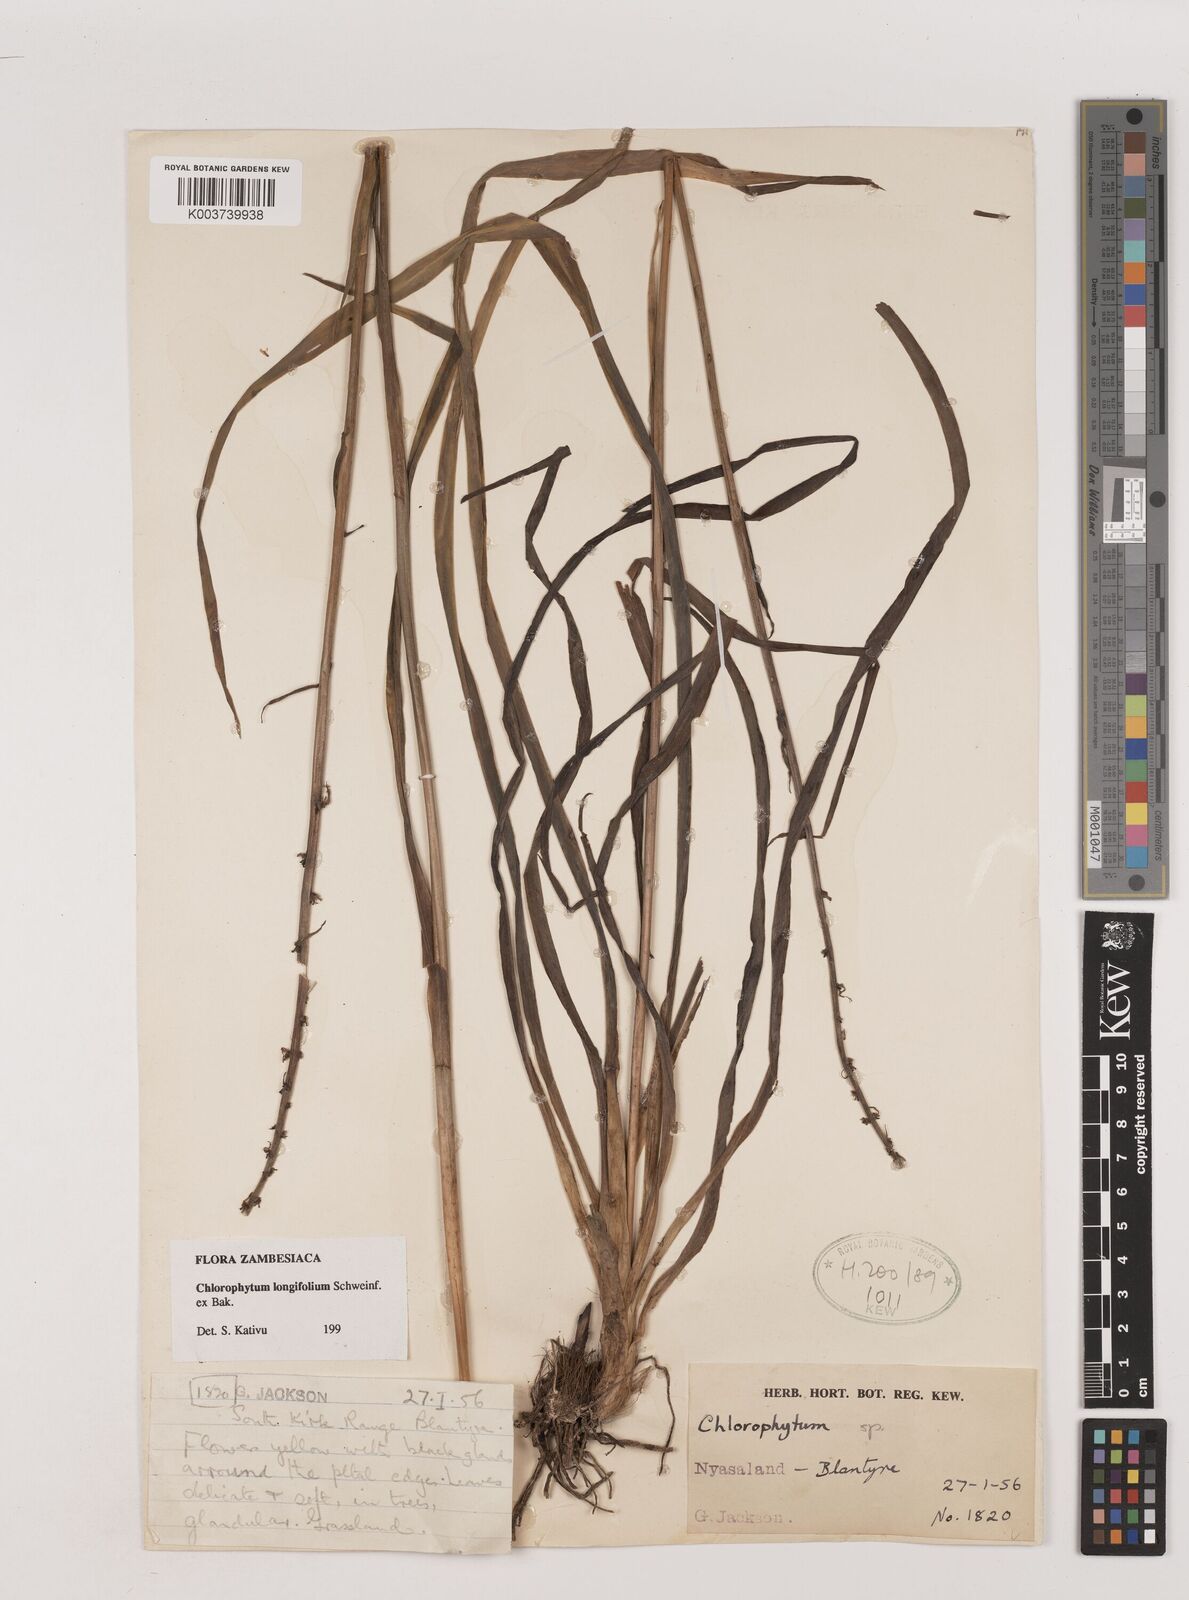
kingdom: Plantae
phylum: Tracheophyta
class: Liliopsida
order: Asparagales
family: Asparagaceae
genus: Chlorophytum
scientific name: Chlorophytum longifolium
